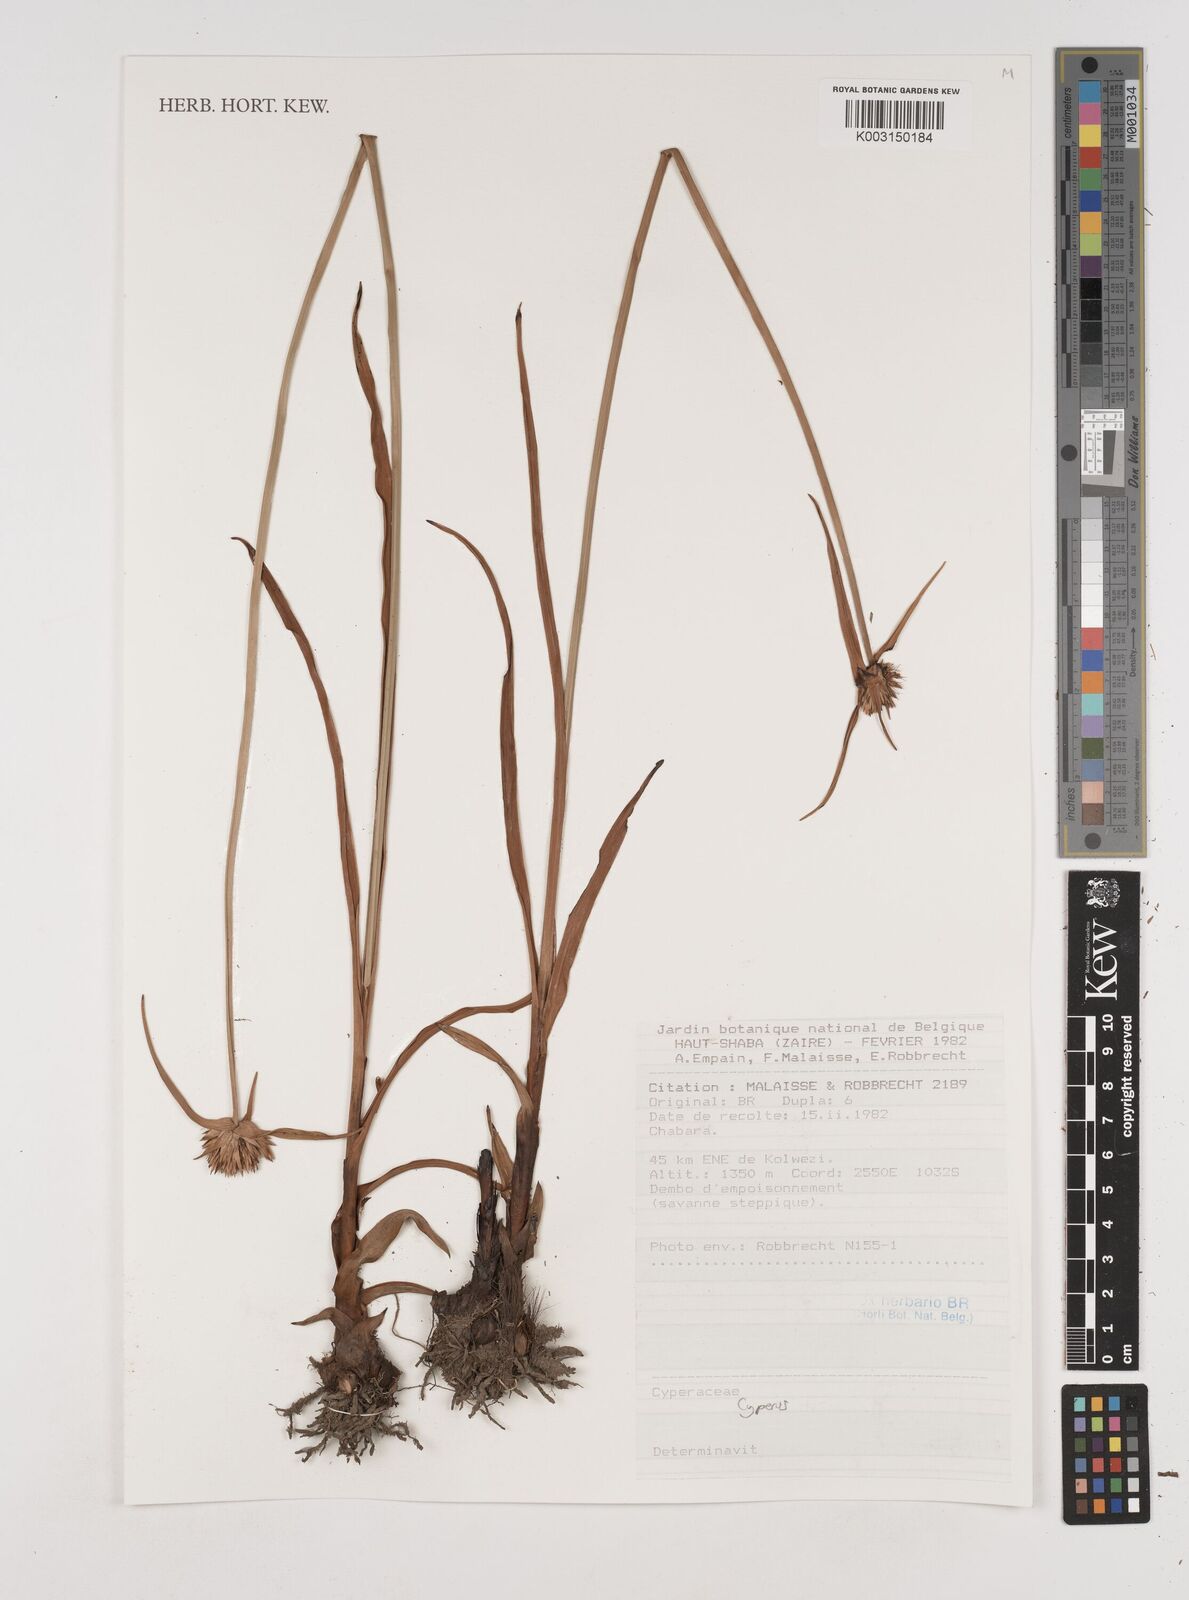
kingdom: Plantae
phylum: Tracheophyta
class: Liliopsida
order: Poales
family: Cyperaceae
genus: Cyperus
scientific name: Cyperus
